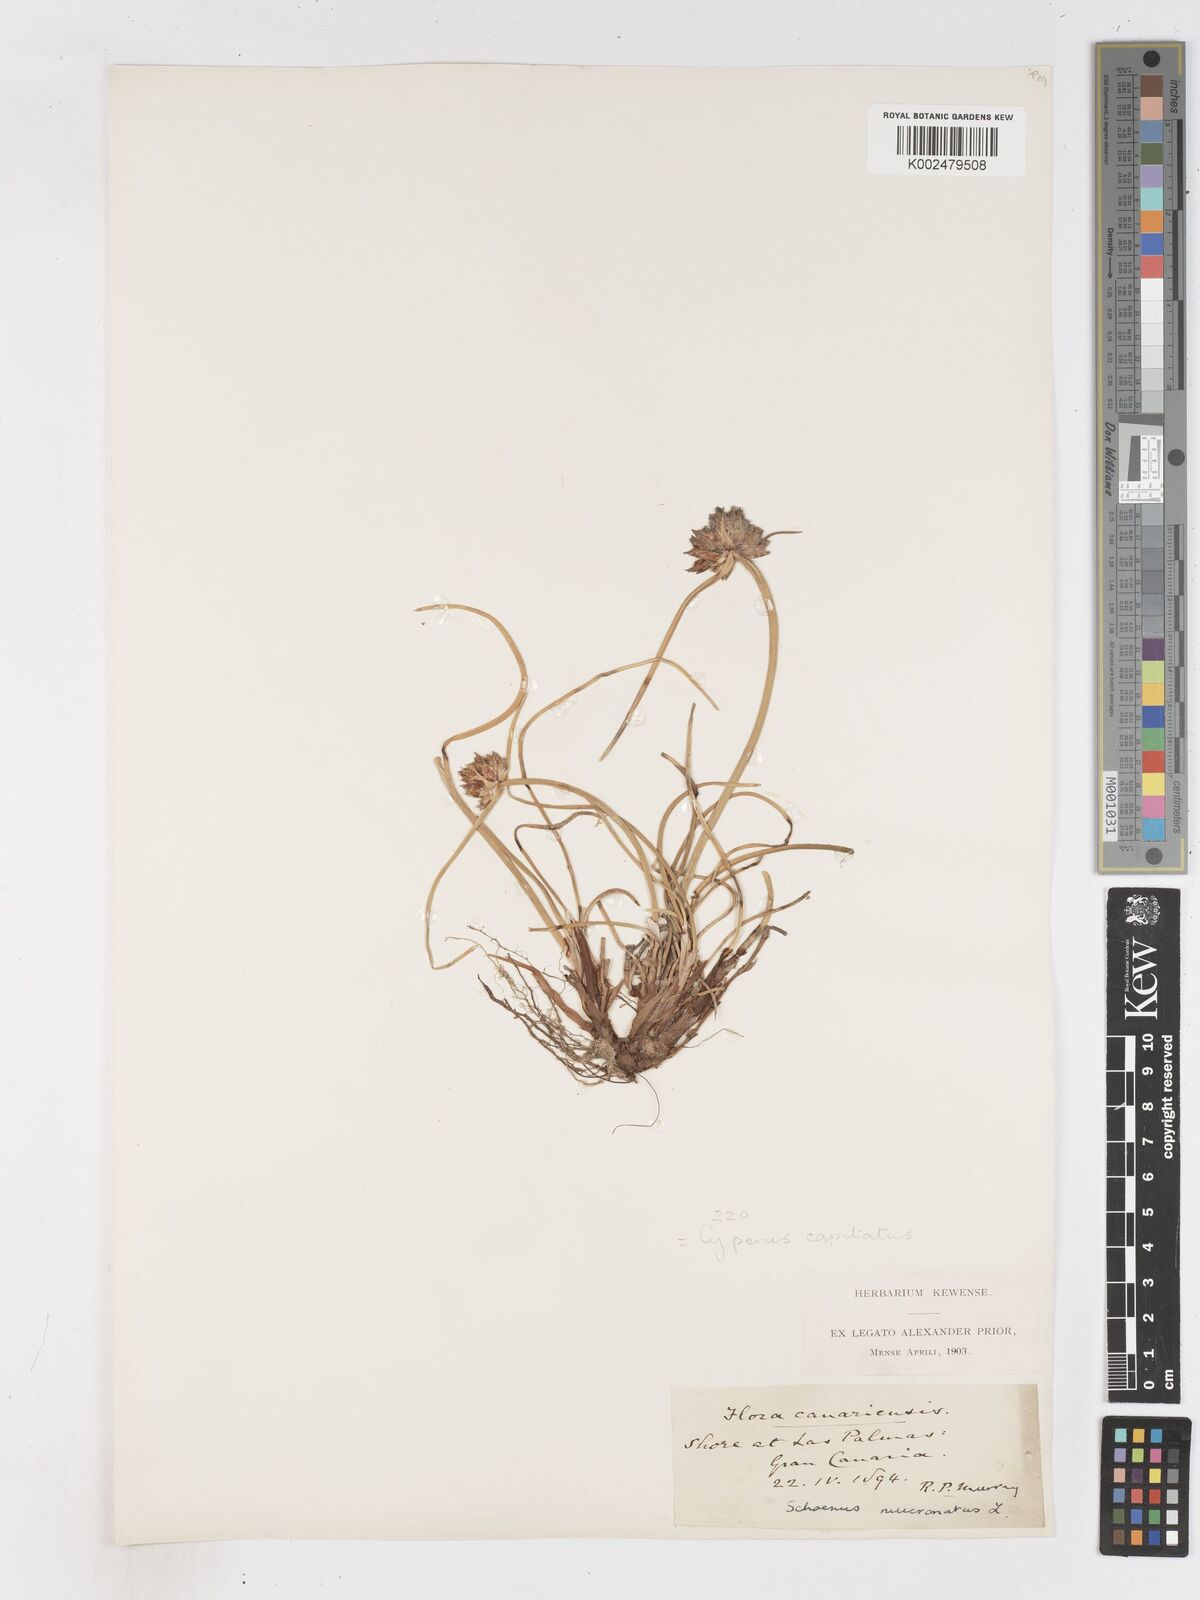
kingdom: Plantae
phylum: Tracheophyta
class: Liliopsida
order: Poales
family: Cyperaceae
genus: Cyperus
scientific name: Cyperus capitatus
